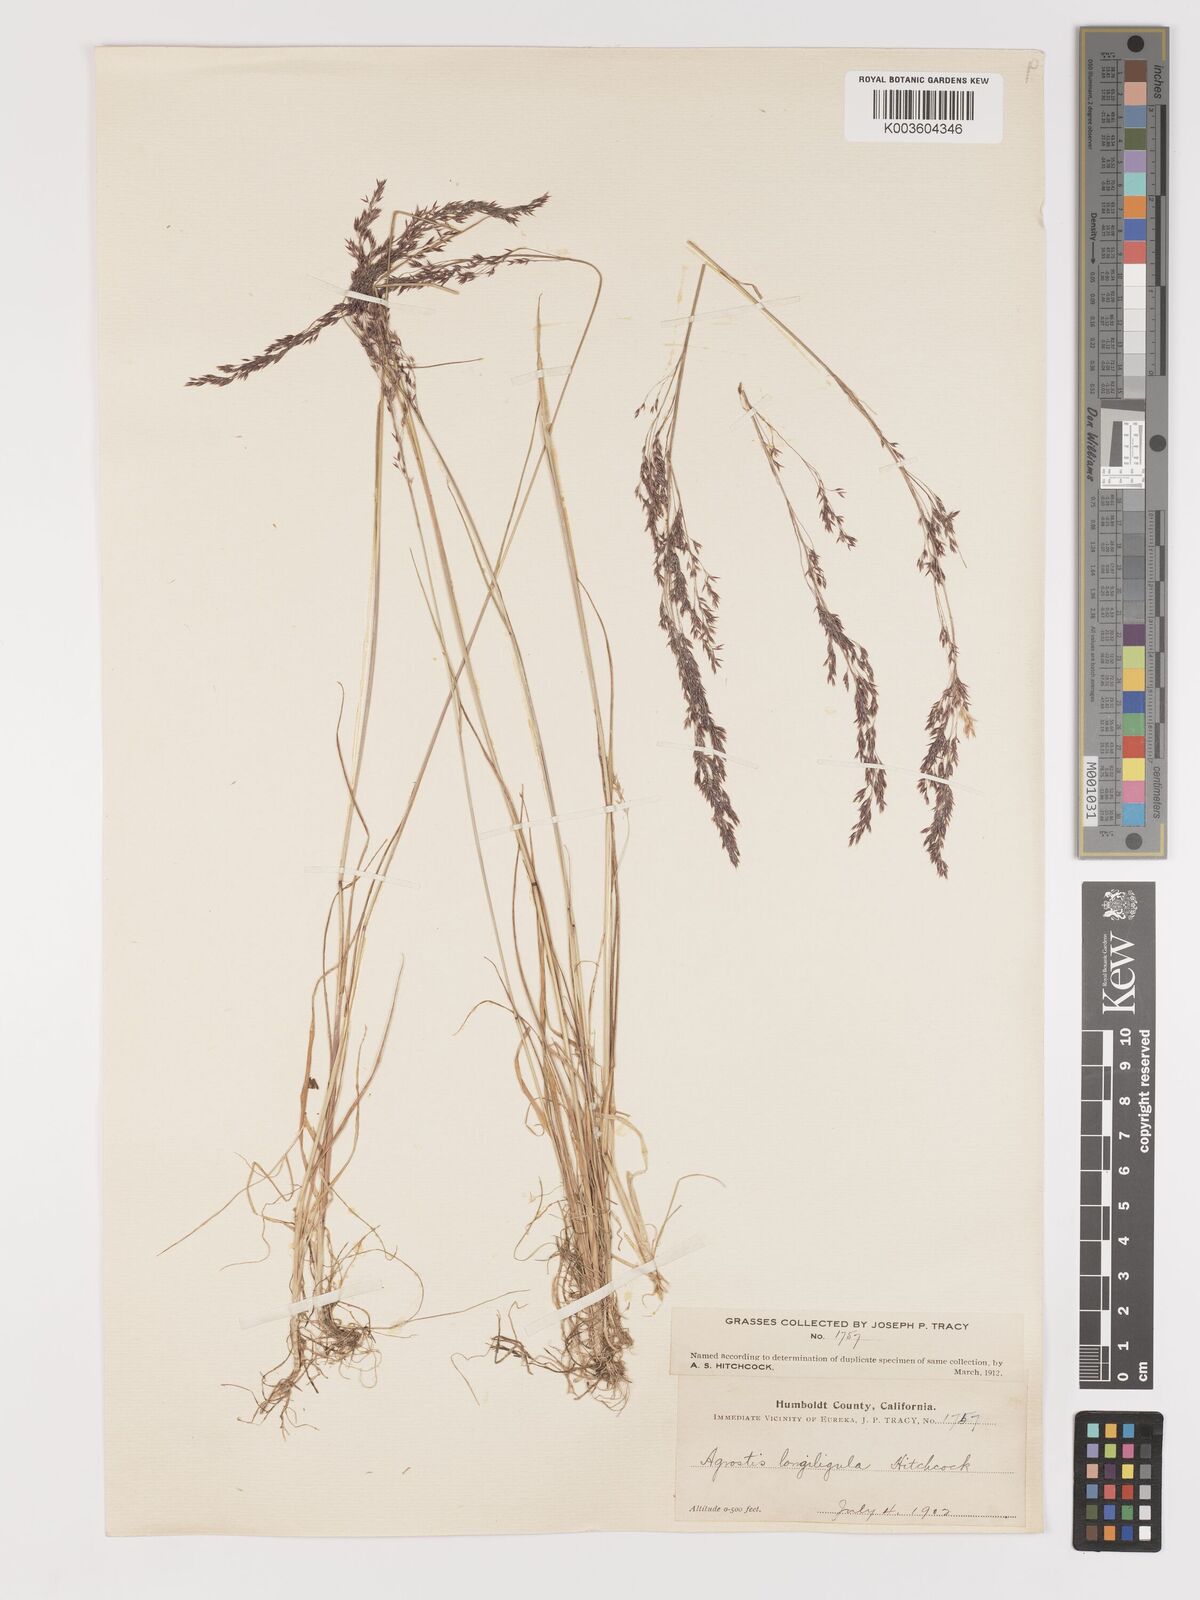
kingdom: Plantae
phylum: Tracheophyta
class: Liliopsida
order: Poales
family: Poaceae
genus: Agrostis
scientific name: Agrostis exarata
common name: Spike bent
